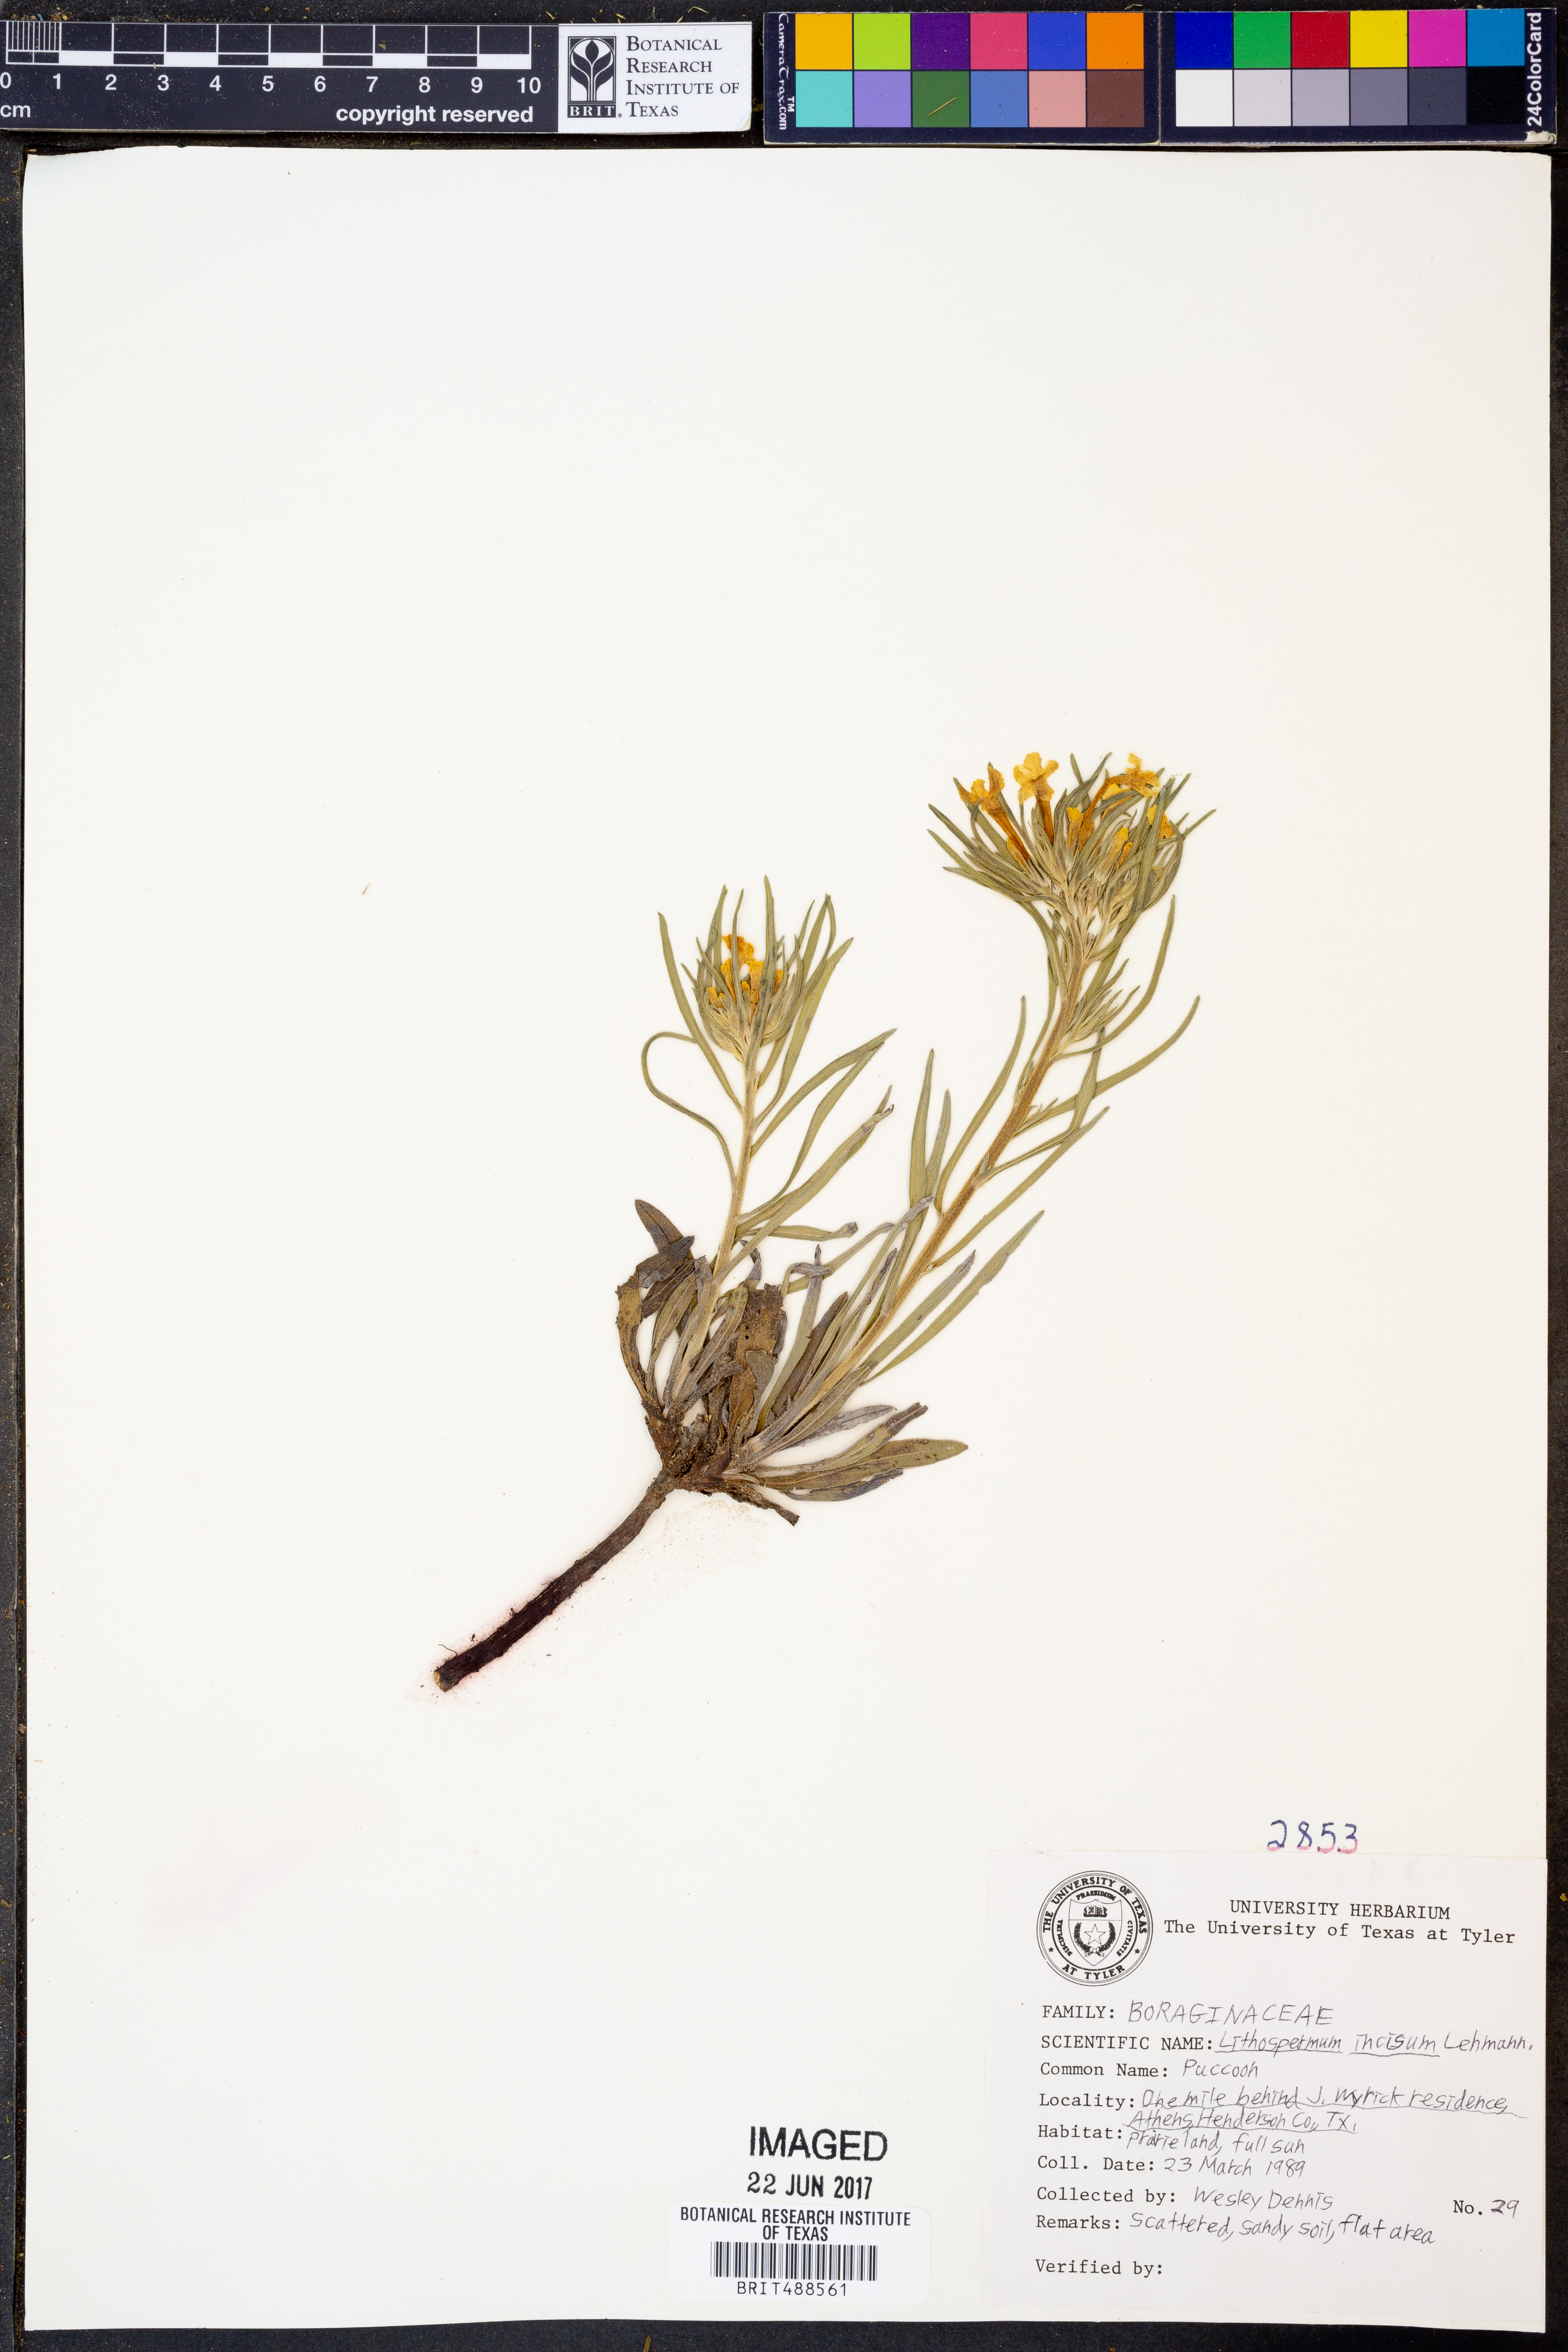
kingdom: Plantae
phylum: Tracheophyta
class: Magnoliopsida
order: Boraginales
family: Boraginaceae
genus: Lithospermum
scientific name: Lithospermum incisum
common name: Fringed gromwell
